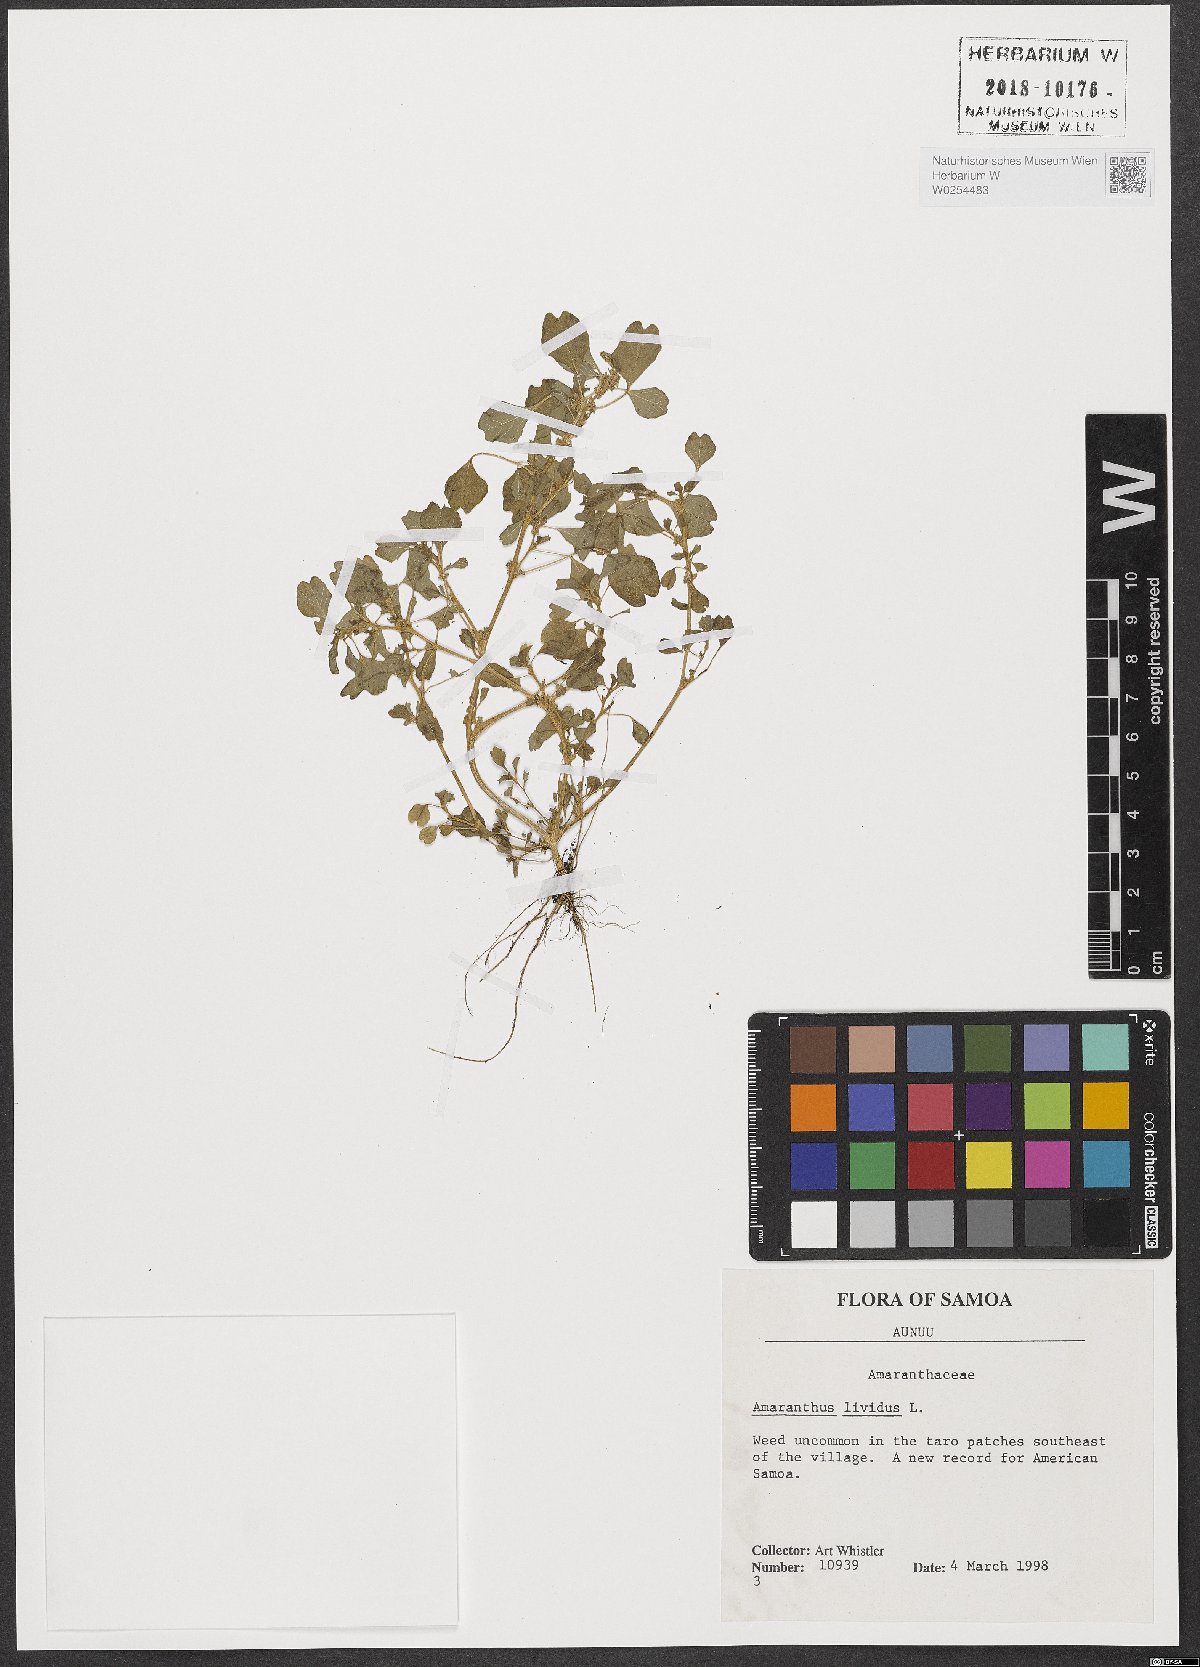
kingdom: Plantae
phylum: Tracheophyta
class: Magnoliopsida
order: Caryophyllales
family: Amaranthaceae
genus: Amaranthus
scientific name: Amaranthus blitum
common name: Purple amaranth
